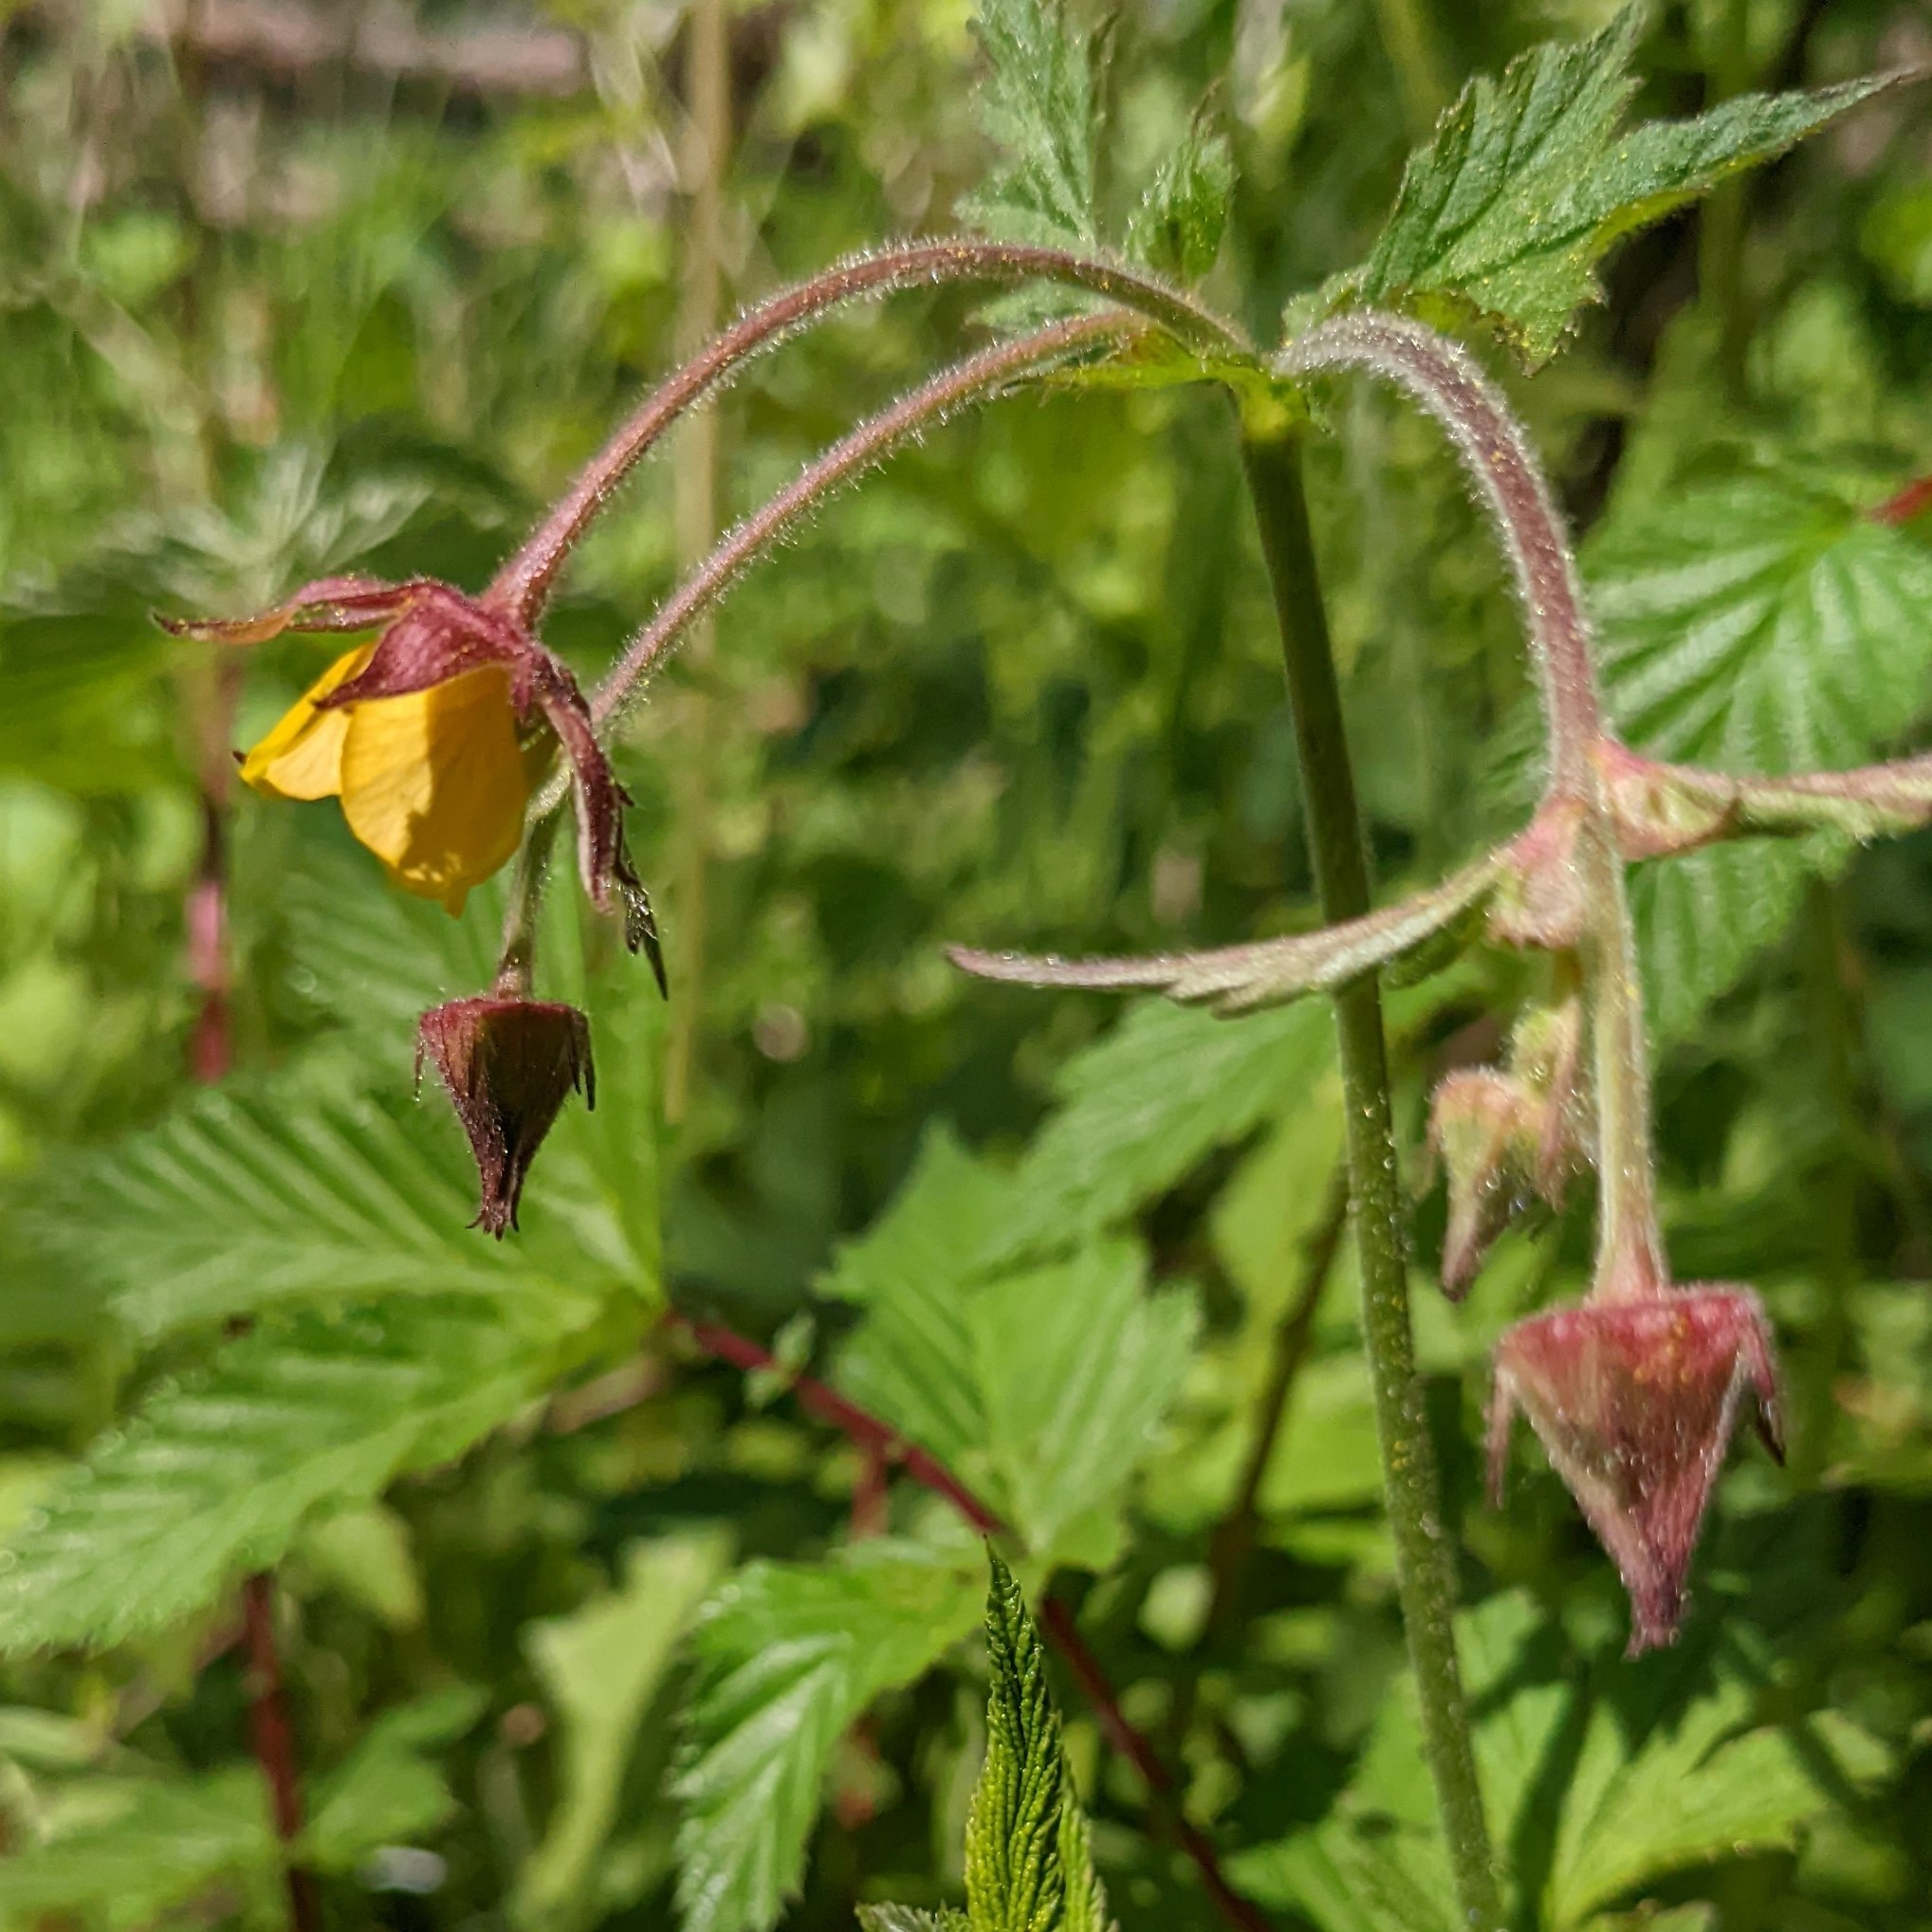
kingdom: Plantae
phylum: Tracheophyta
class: Magnoliopsida
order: Rosales
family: Rosaceae
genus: Geum
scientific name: Geum
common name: Høj nellikerod
